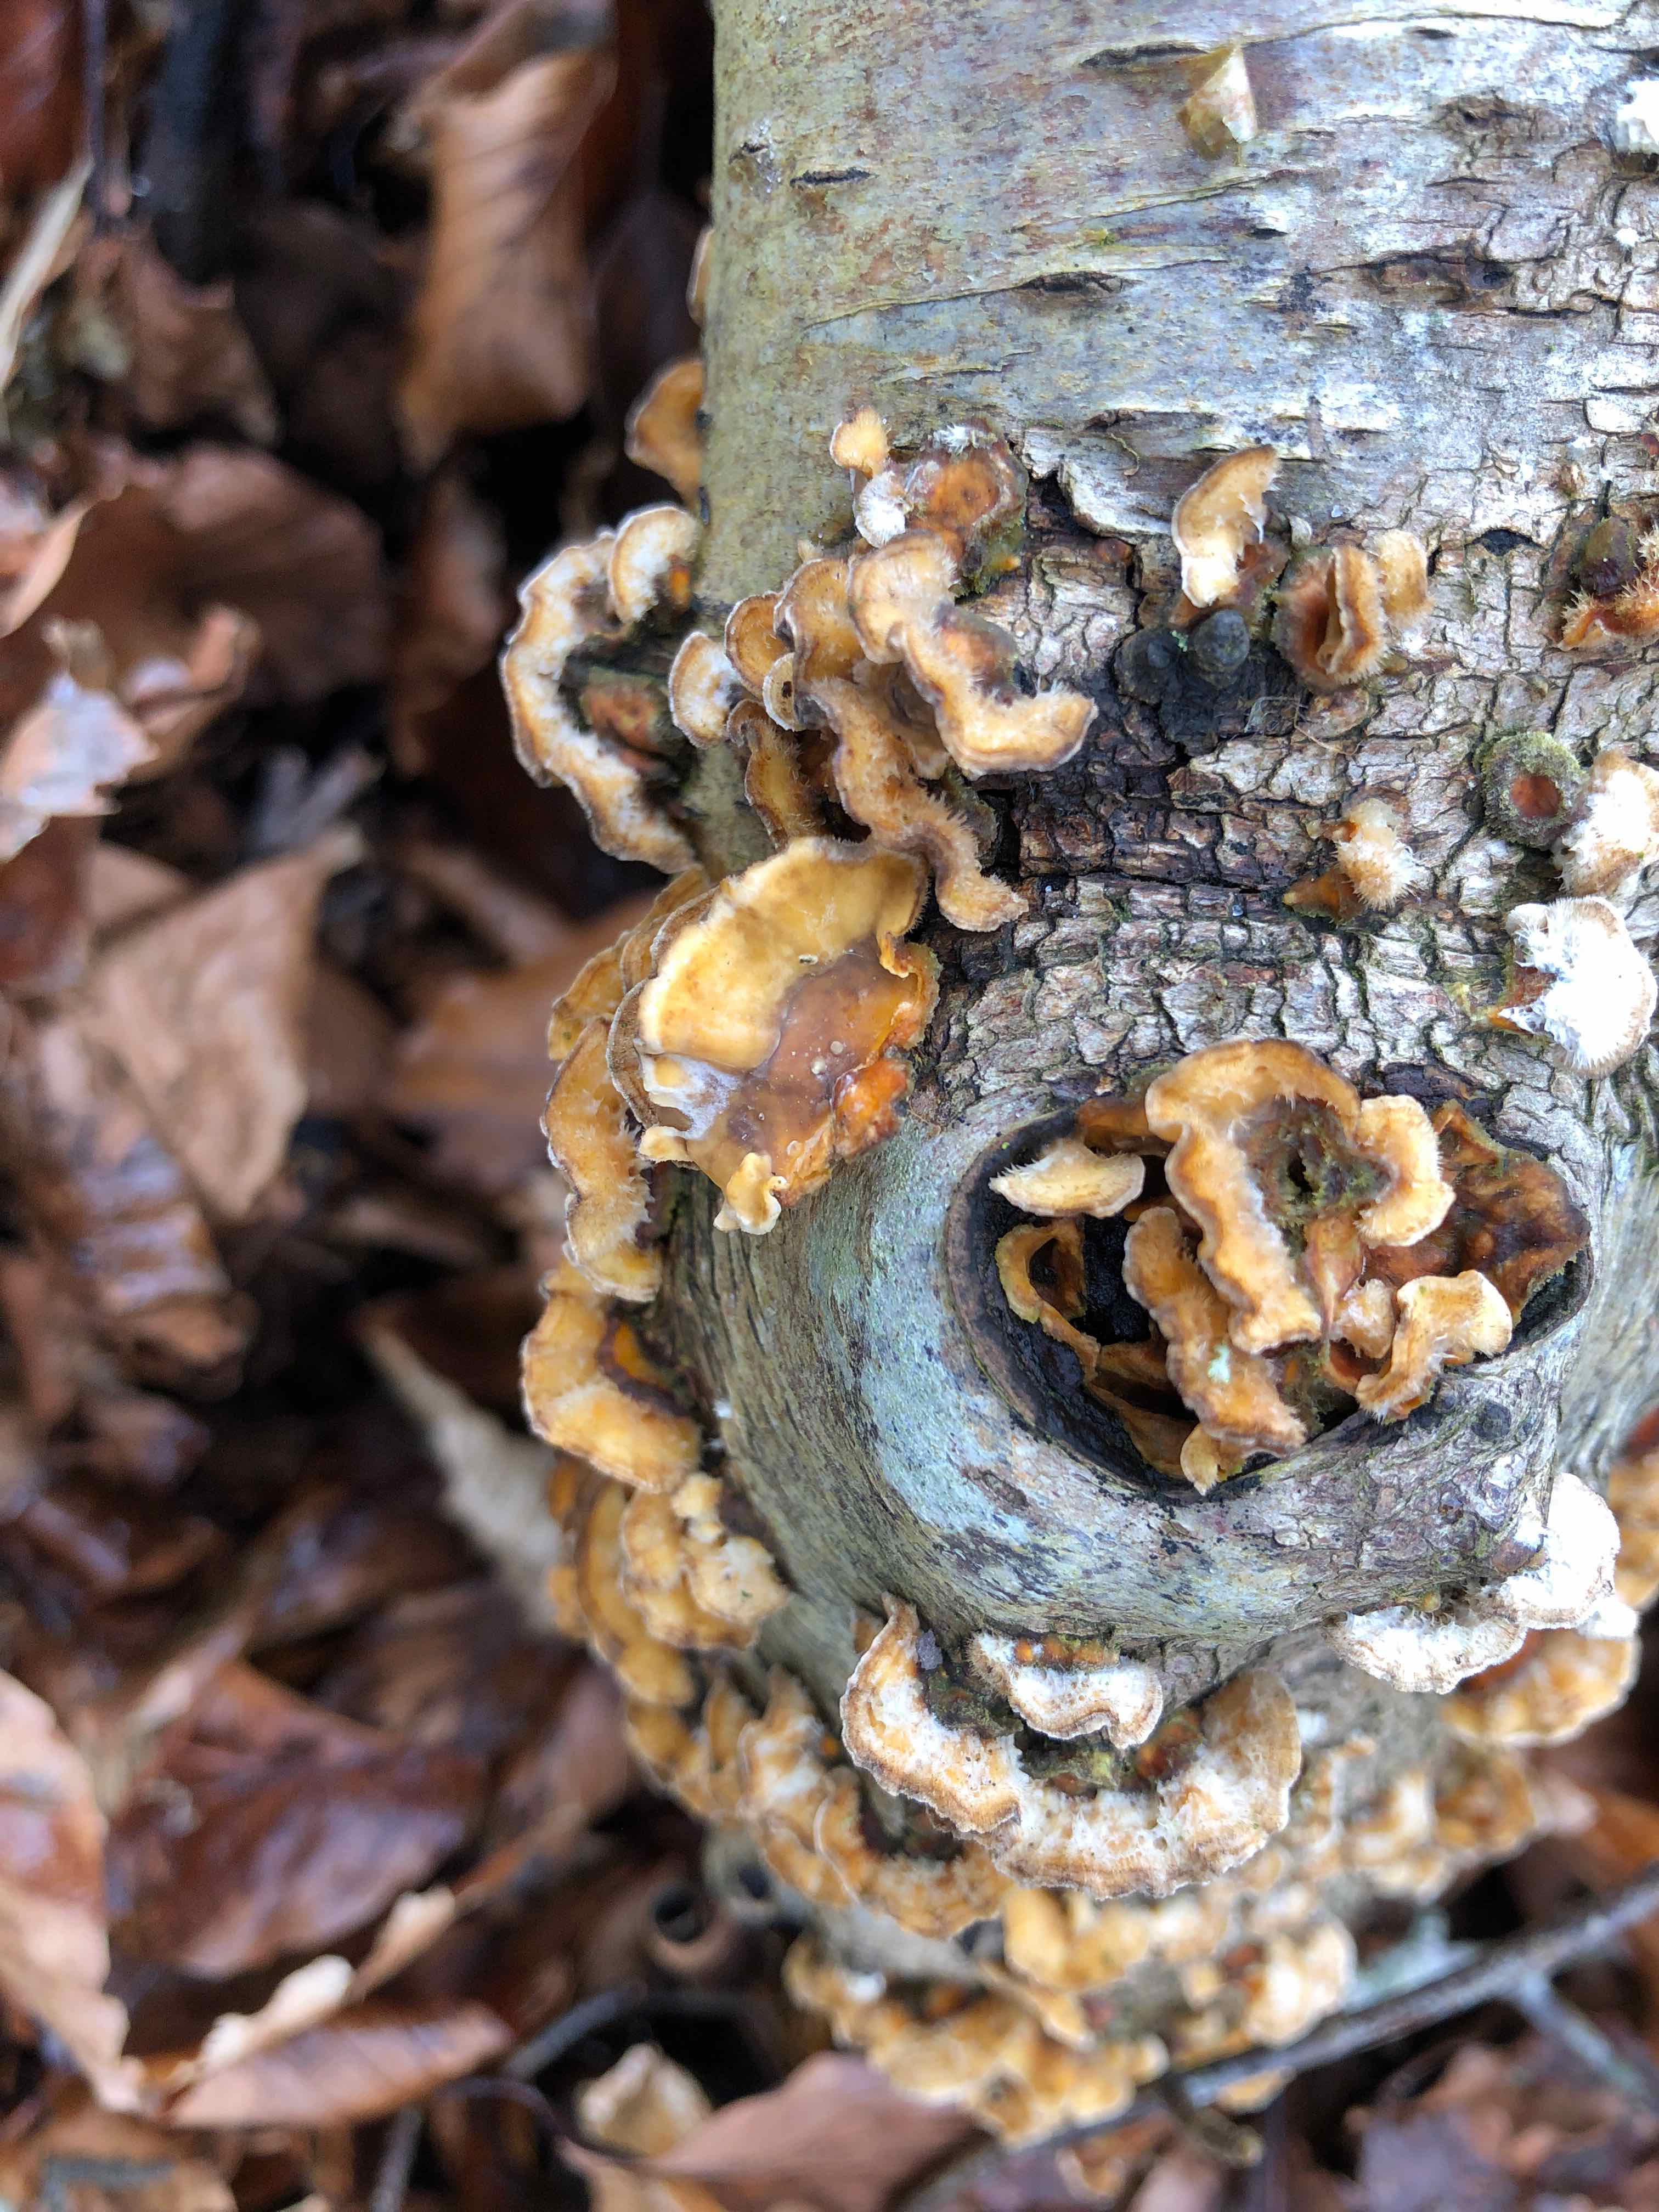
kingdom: Fungi
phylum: Basidiomycota
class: Agaricomycetes
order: Russulales
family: Stereaceae
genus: Stereum
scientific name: Stereum hirsutum
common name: håret lædersvamp
